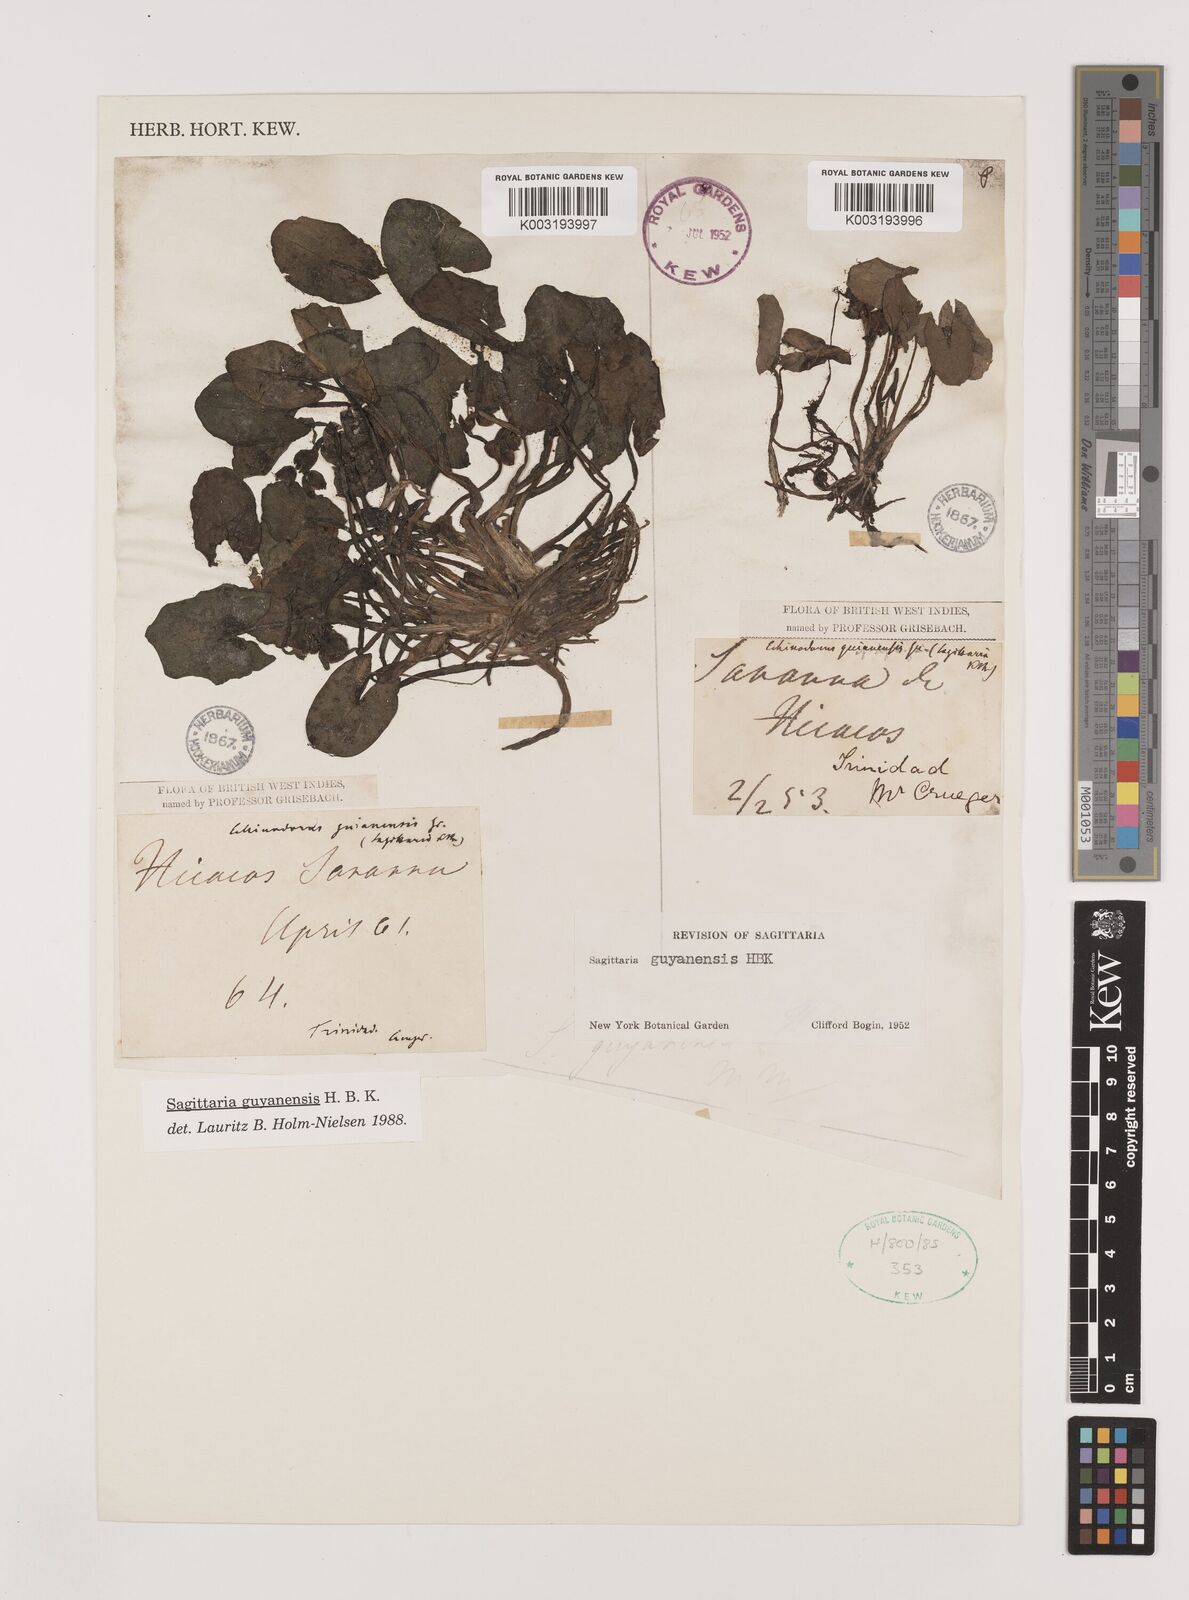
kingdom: Plantae
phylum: Tracheophyta
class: Liliopsida
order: Alismatales
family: Alismataceae
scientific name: Alismataceae
